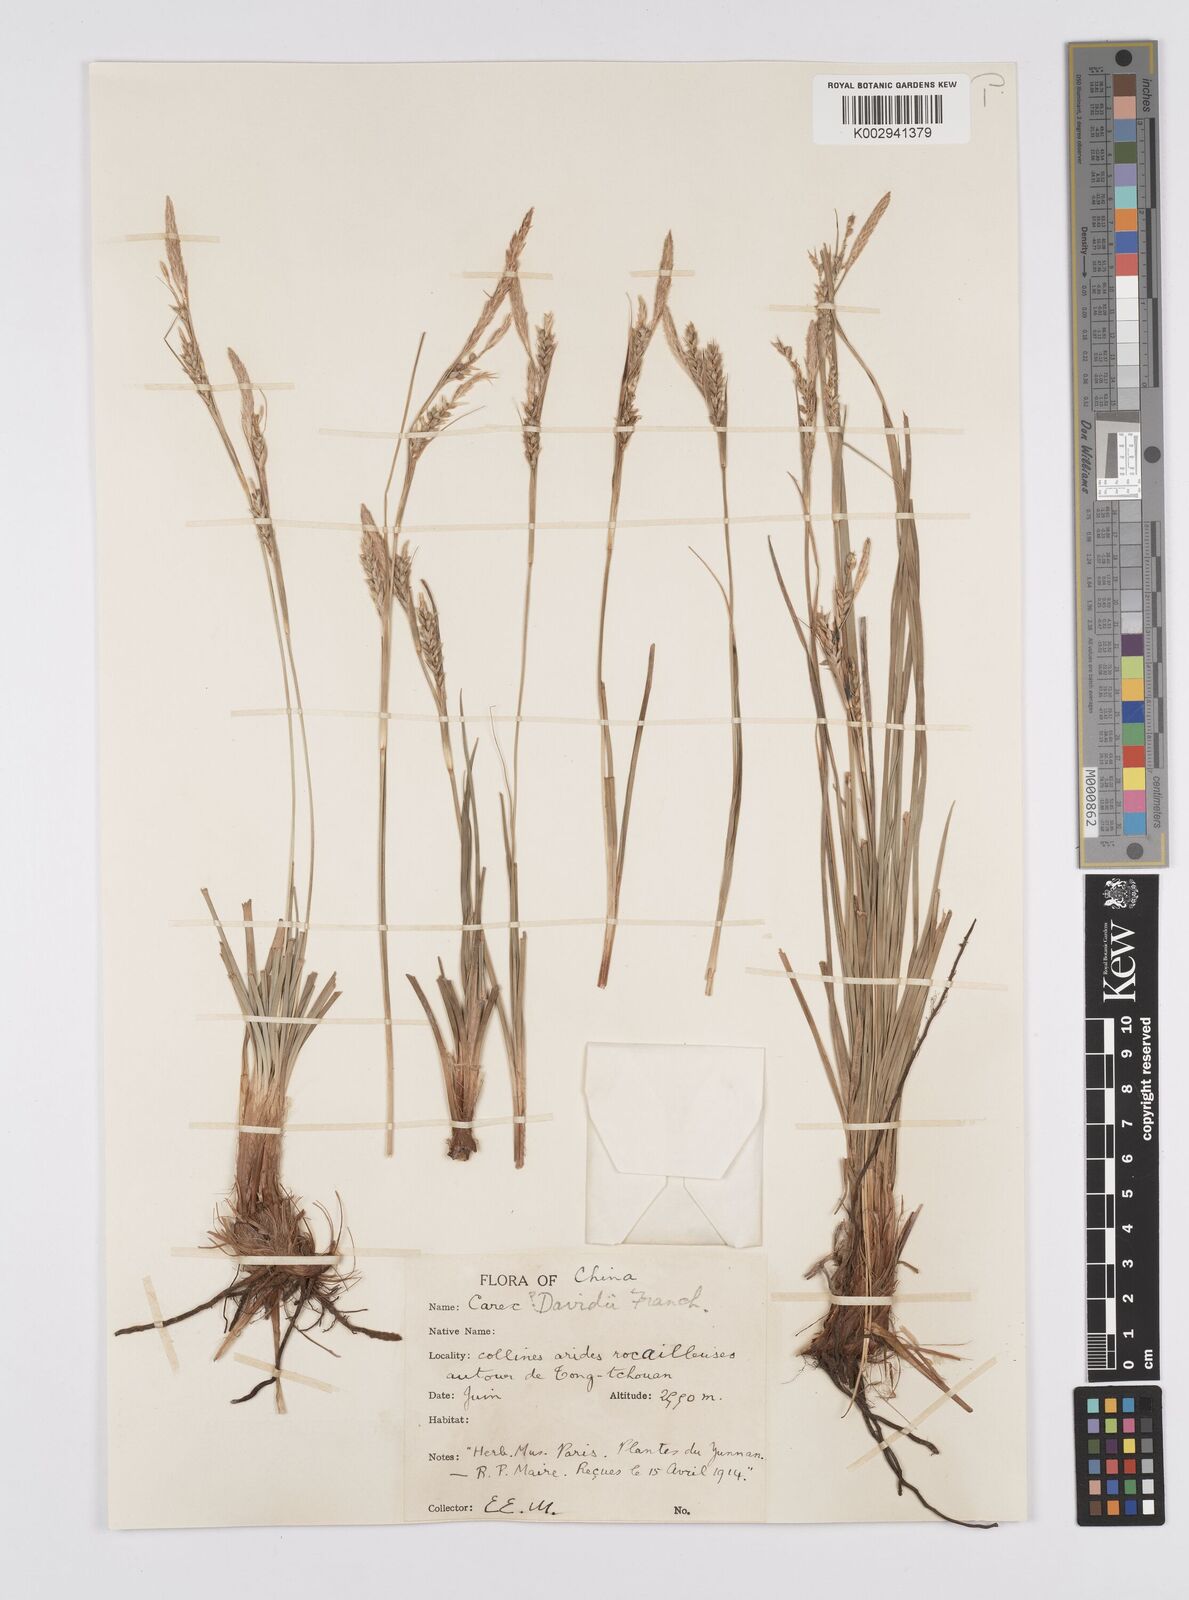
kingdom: Plantae
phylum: Tracheophyta
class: Liliopsida
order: Poales
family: Cyperaceae
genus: Carex
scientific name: Carex davidii
